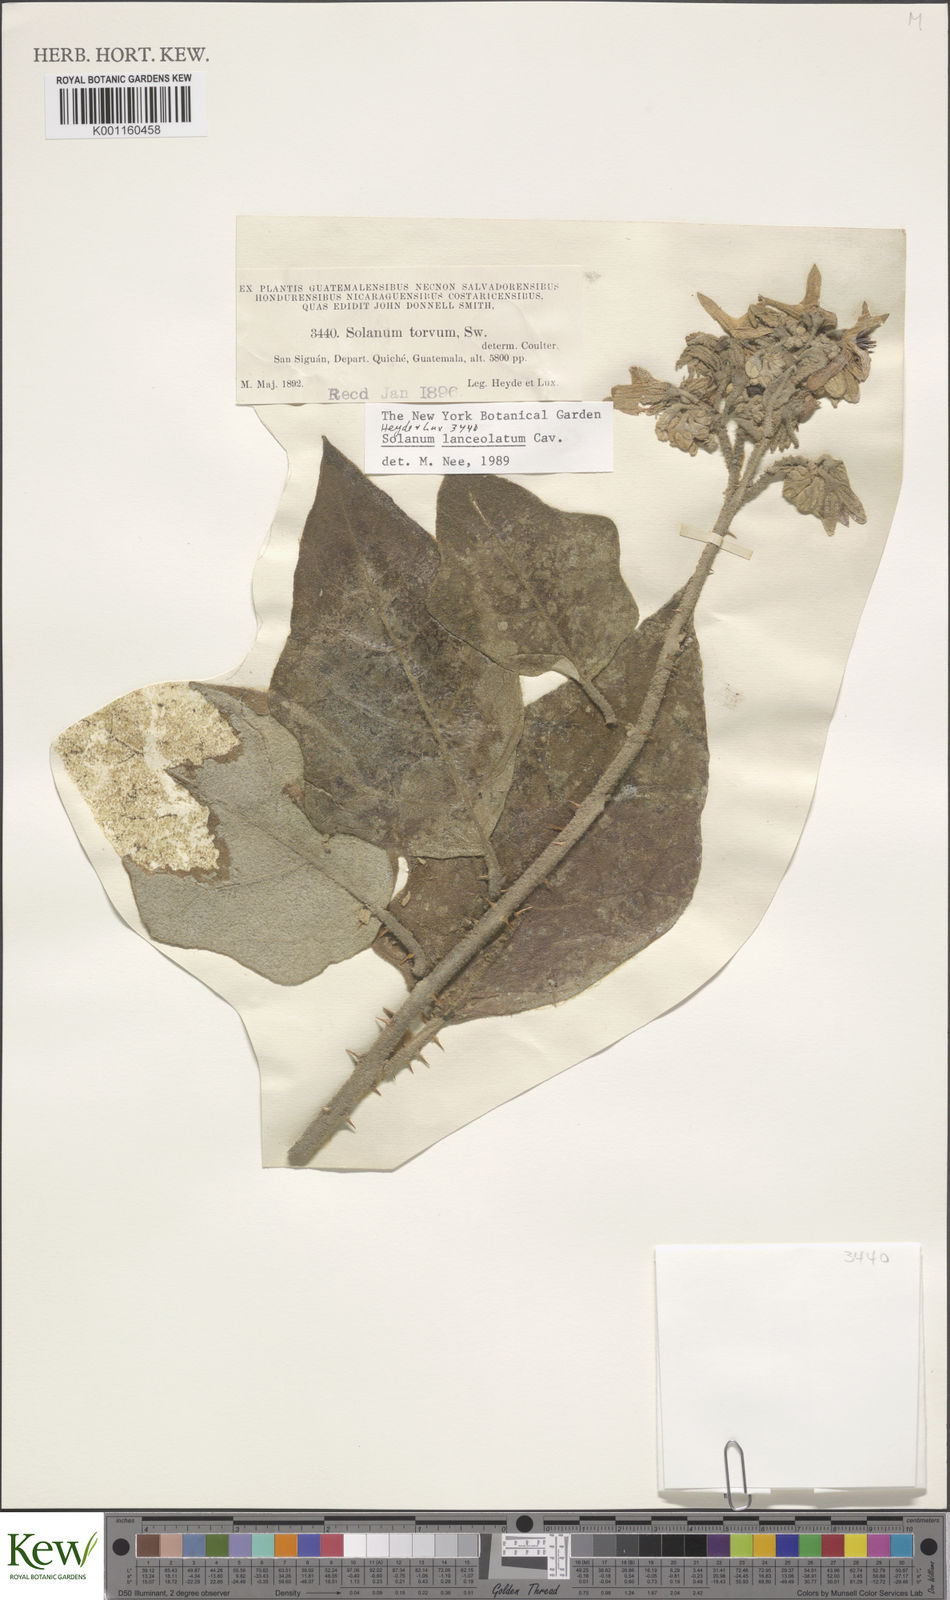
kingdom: Plantae
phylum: Tracheophyta
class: Magnoliopsida
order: Solanales
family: Solanaceae
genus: Solanum
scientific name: Solanum lanceolatum
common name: Orangeberry nightshade
